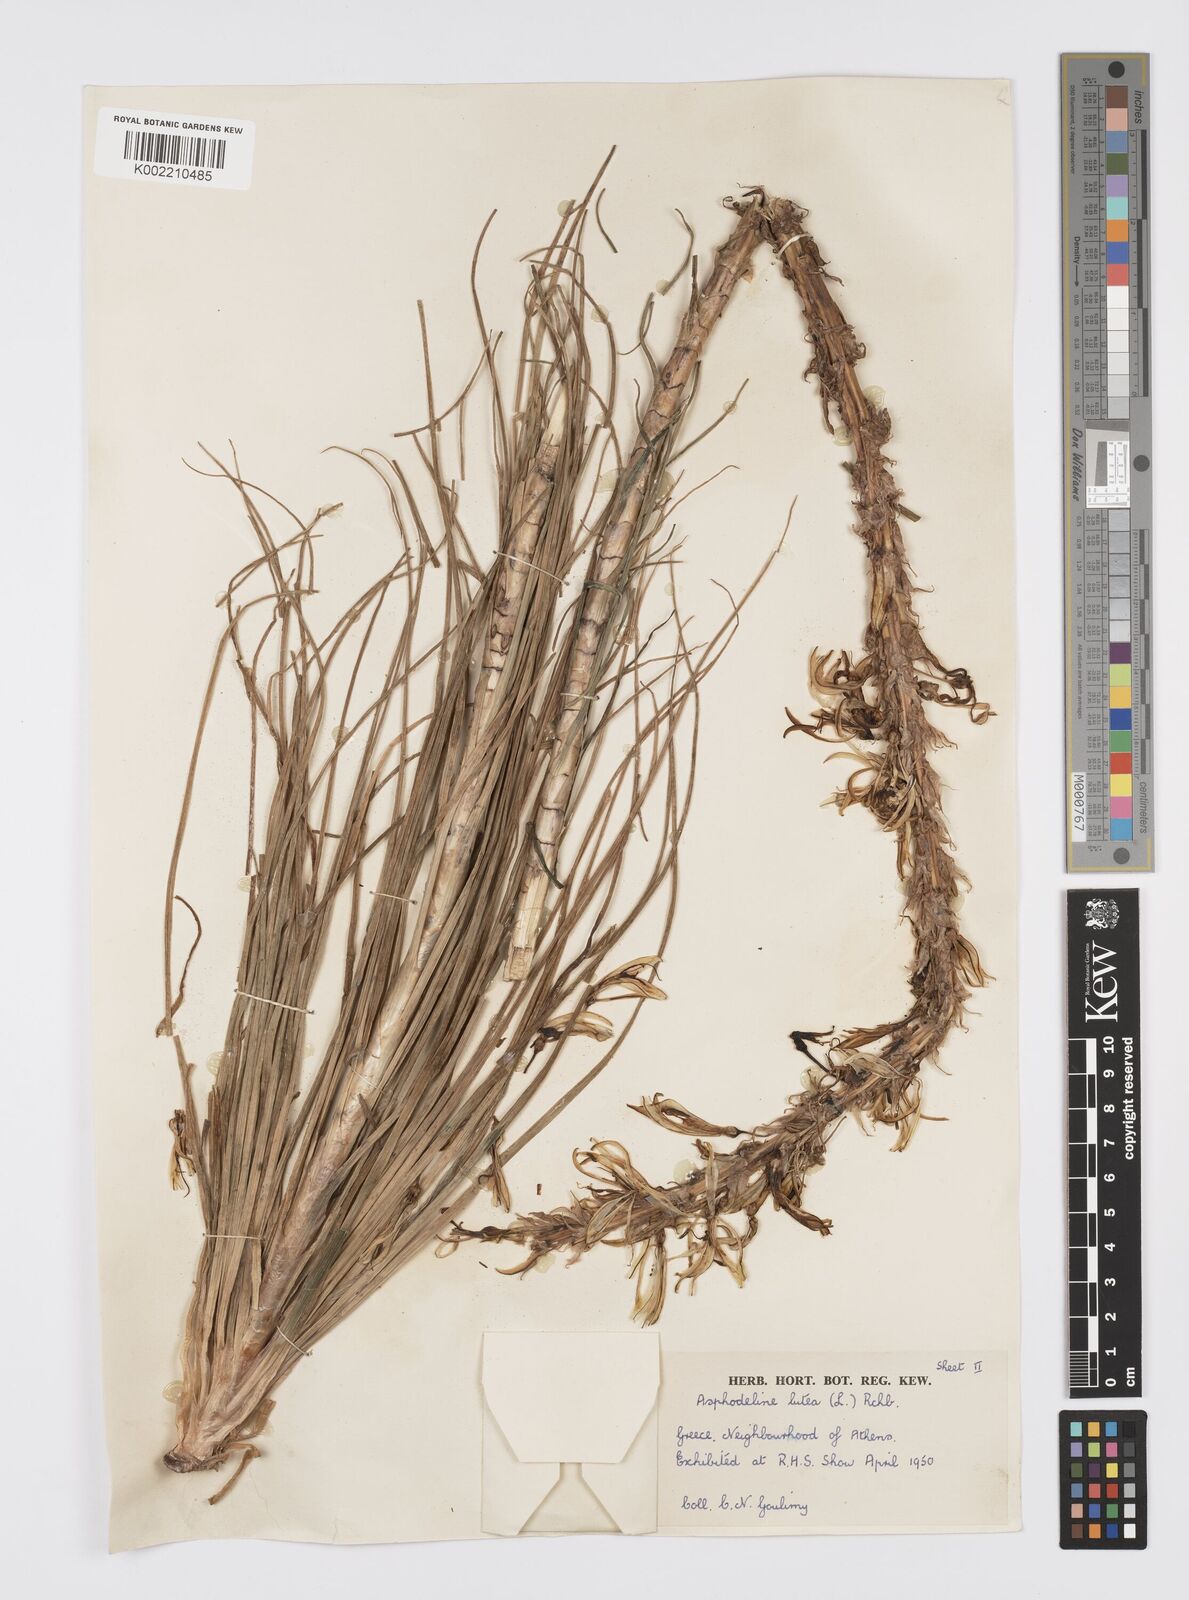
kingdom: Plantae
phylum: Tracheophyta
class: Liliopsida
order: Asparagales
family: Asphodelaceae
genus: Asphodeline
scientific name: Asphodeline lutea
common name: Yellow asphodel
